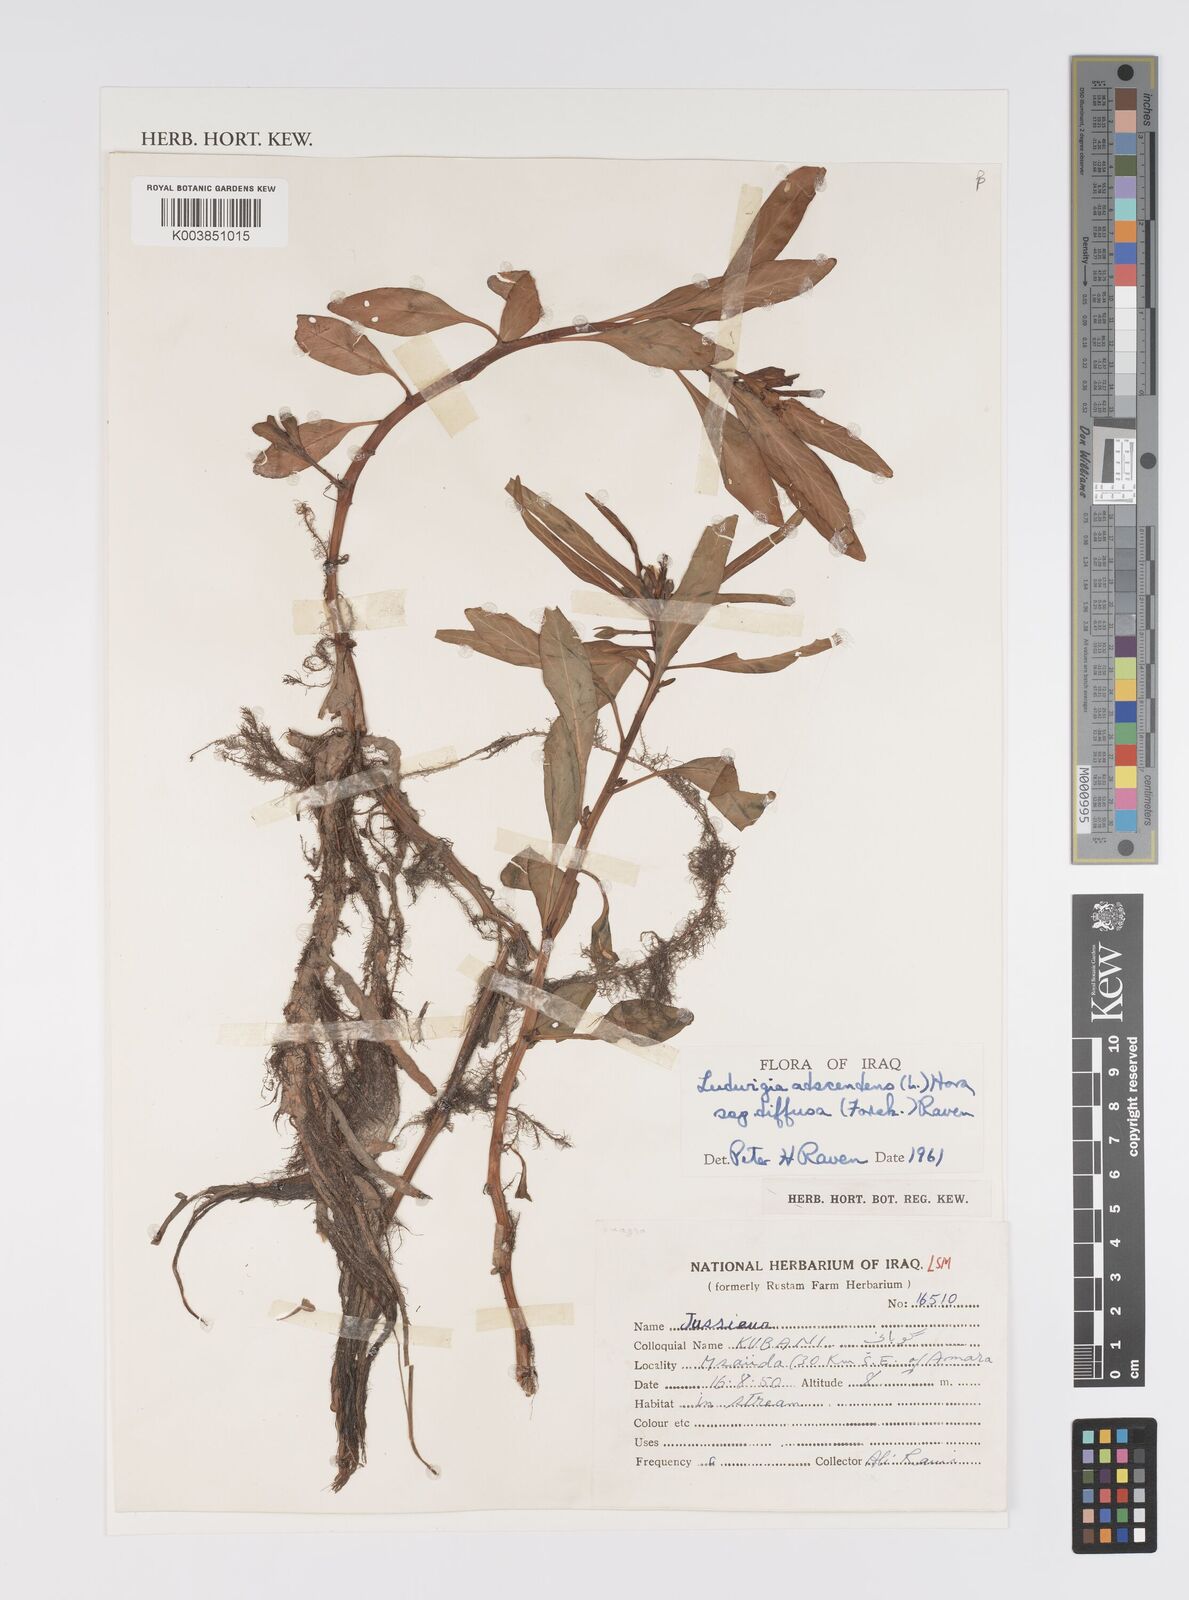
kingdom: Plantae
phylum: Tracheophyta
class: Magnoliopsida
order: Myrtales
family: Onagraceae
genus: Ludwigia
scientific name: Ludwigia adscendens
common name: Creeping water primrose
